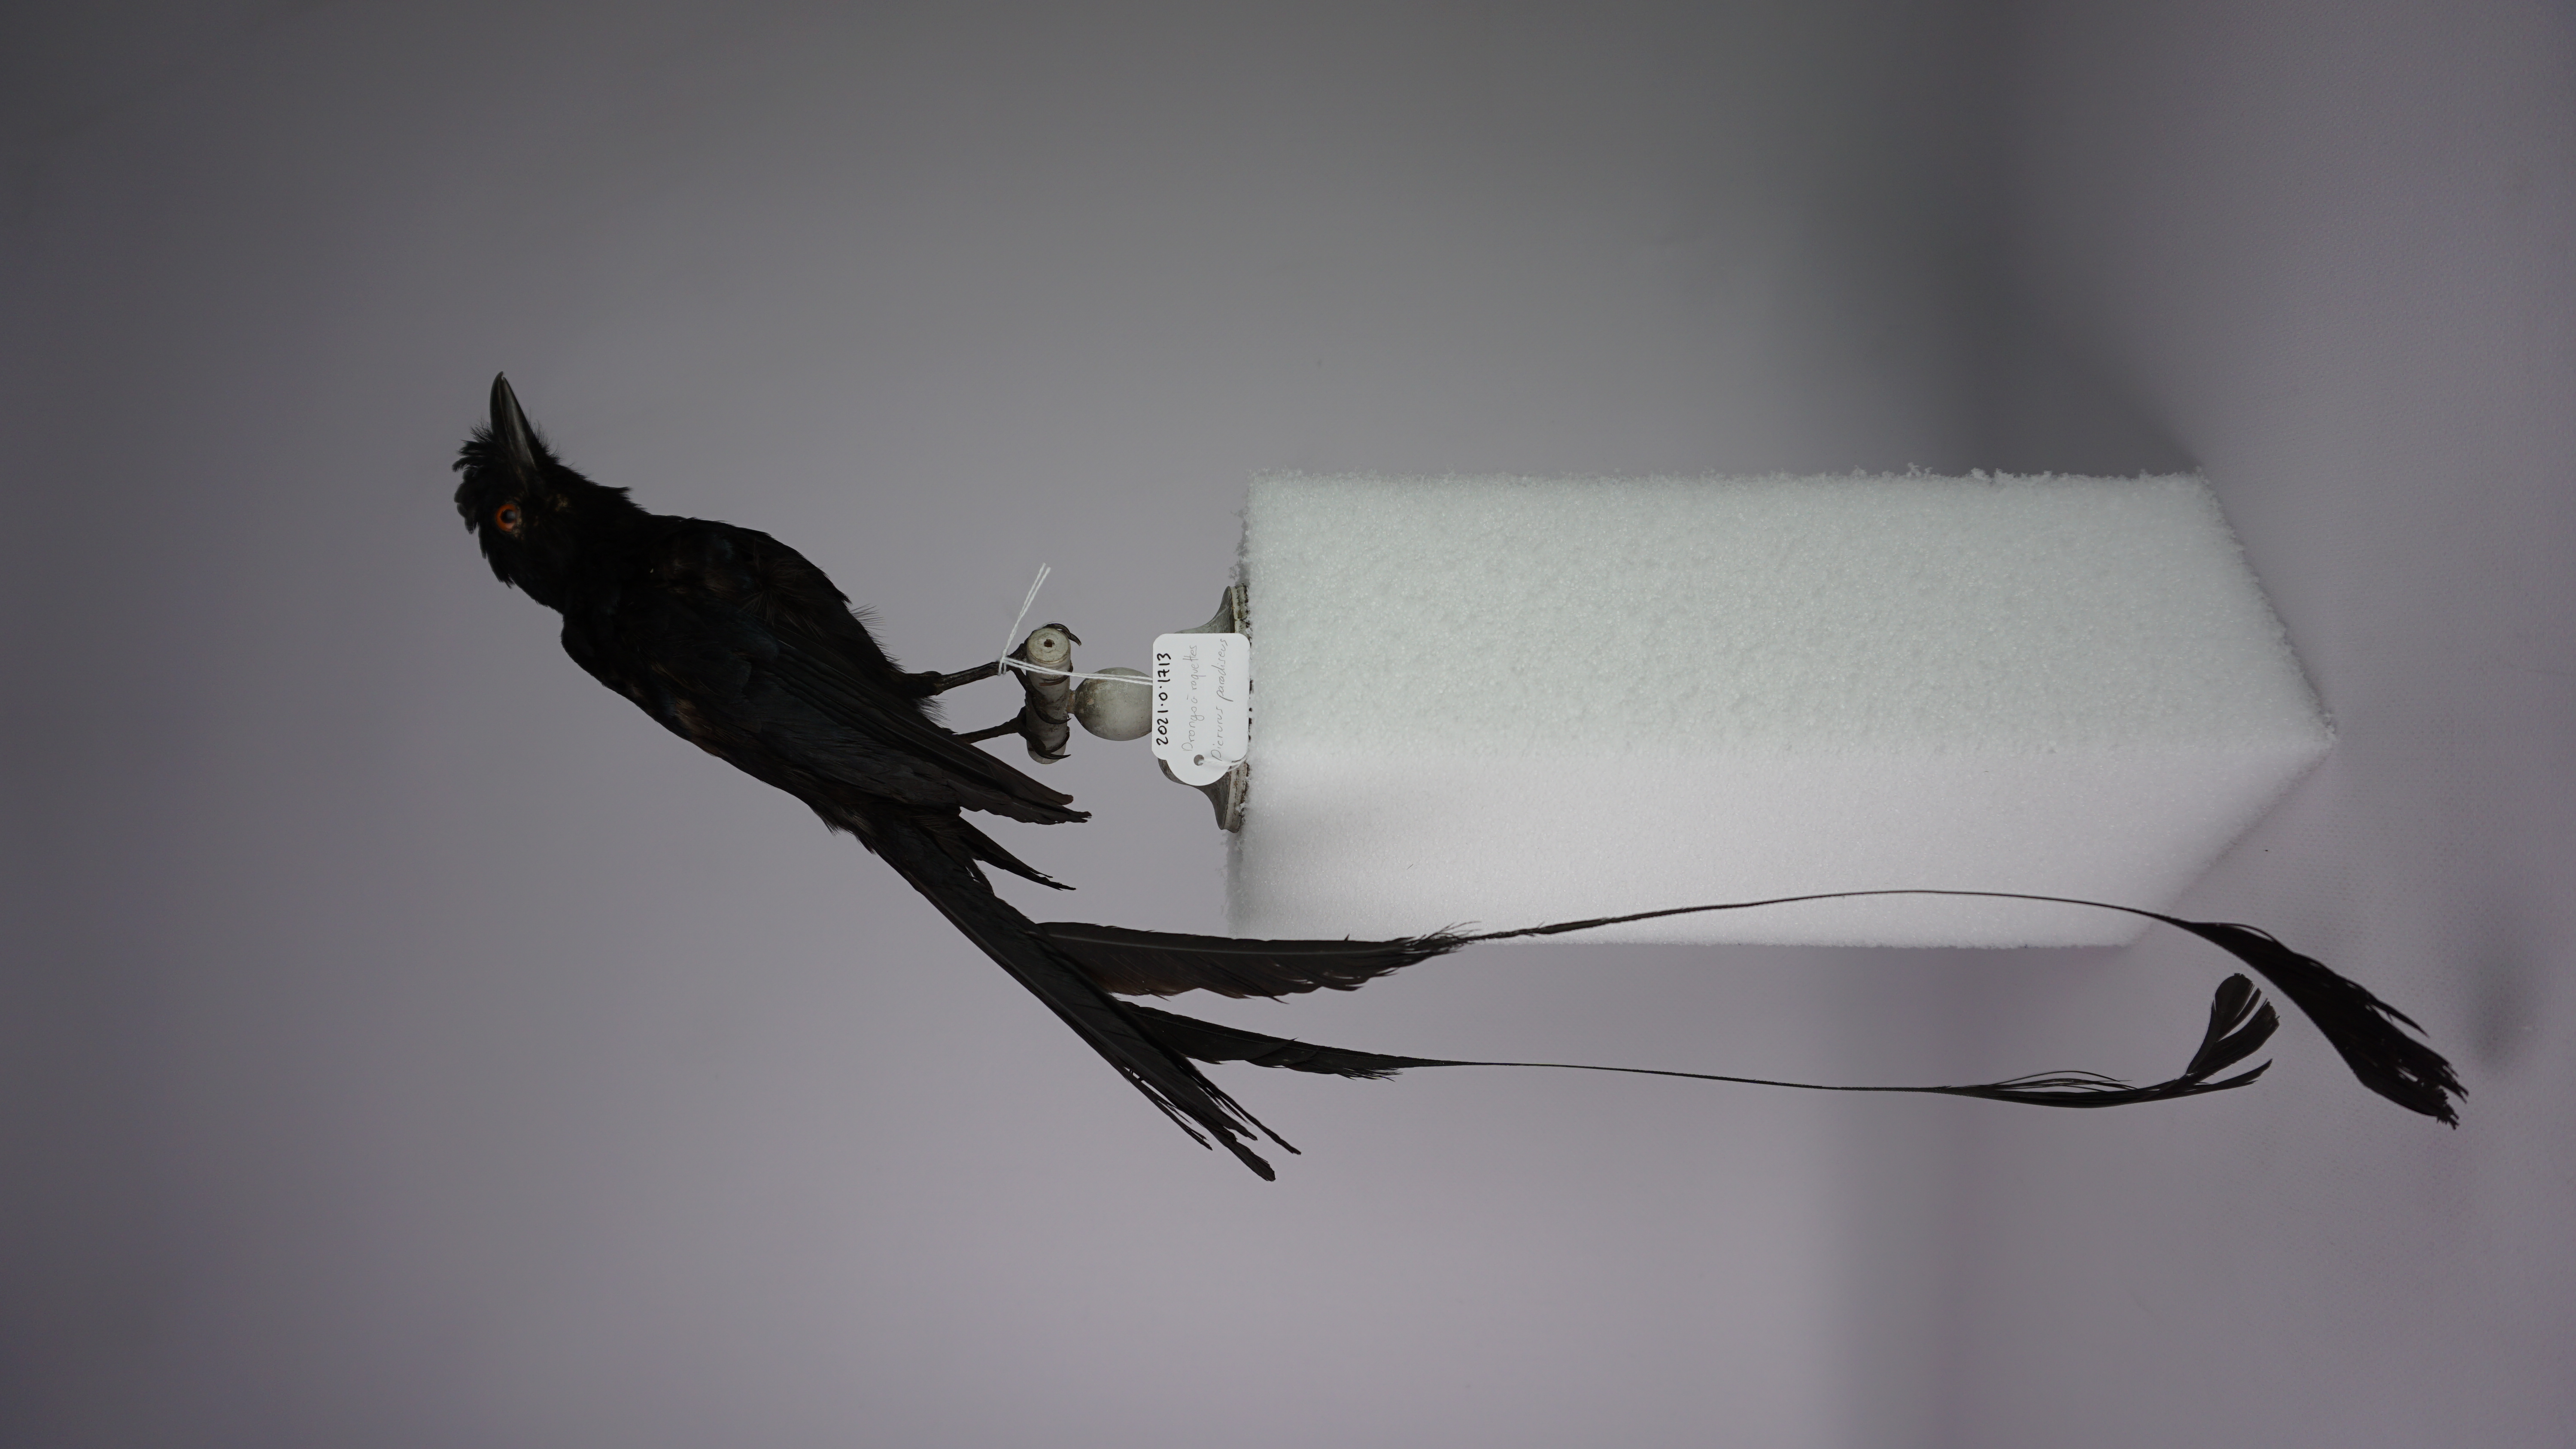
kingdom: Animalia
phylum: Chordata
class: Aves
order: Passeriformes
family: Dicruridae
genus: Dicrurus
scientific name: Dicrurus paradiseus
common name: Greater racket-tailed drongo
